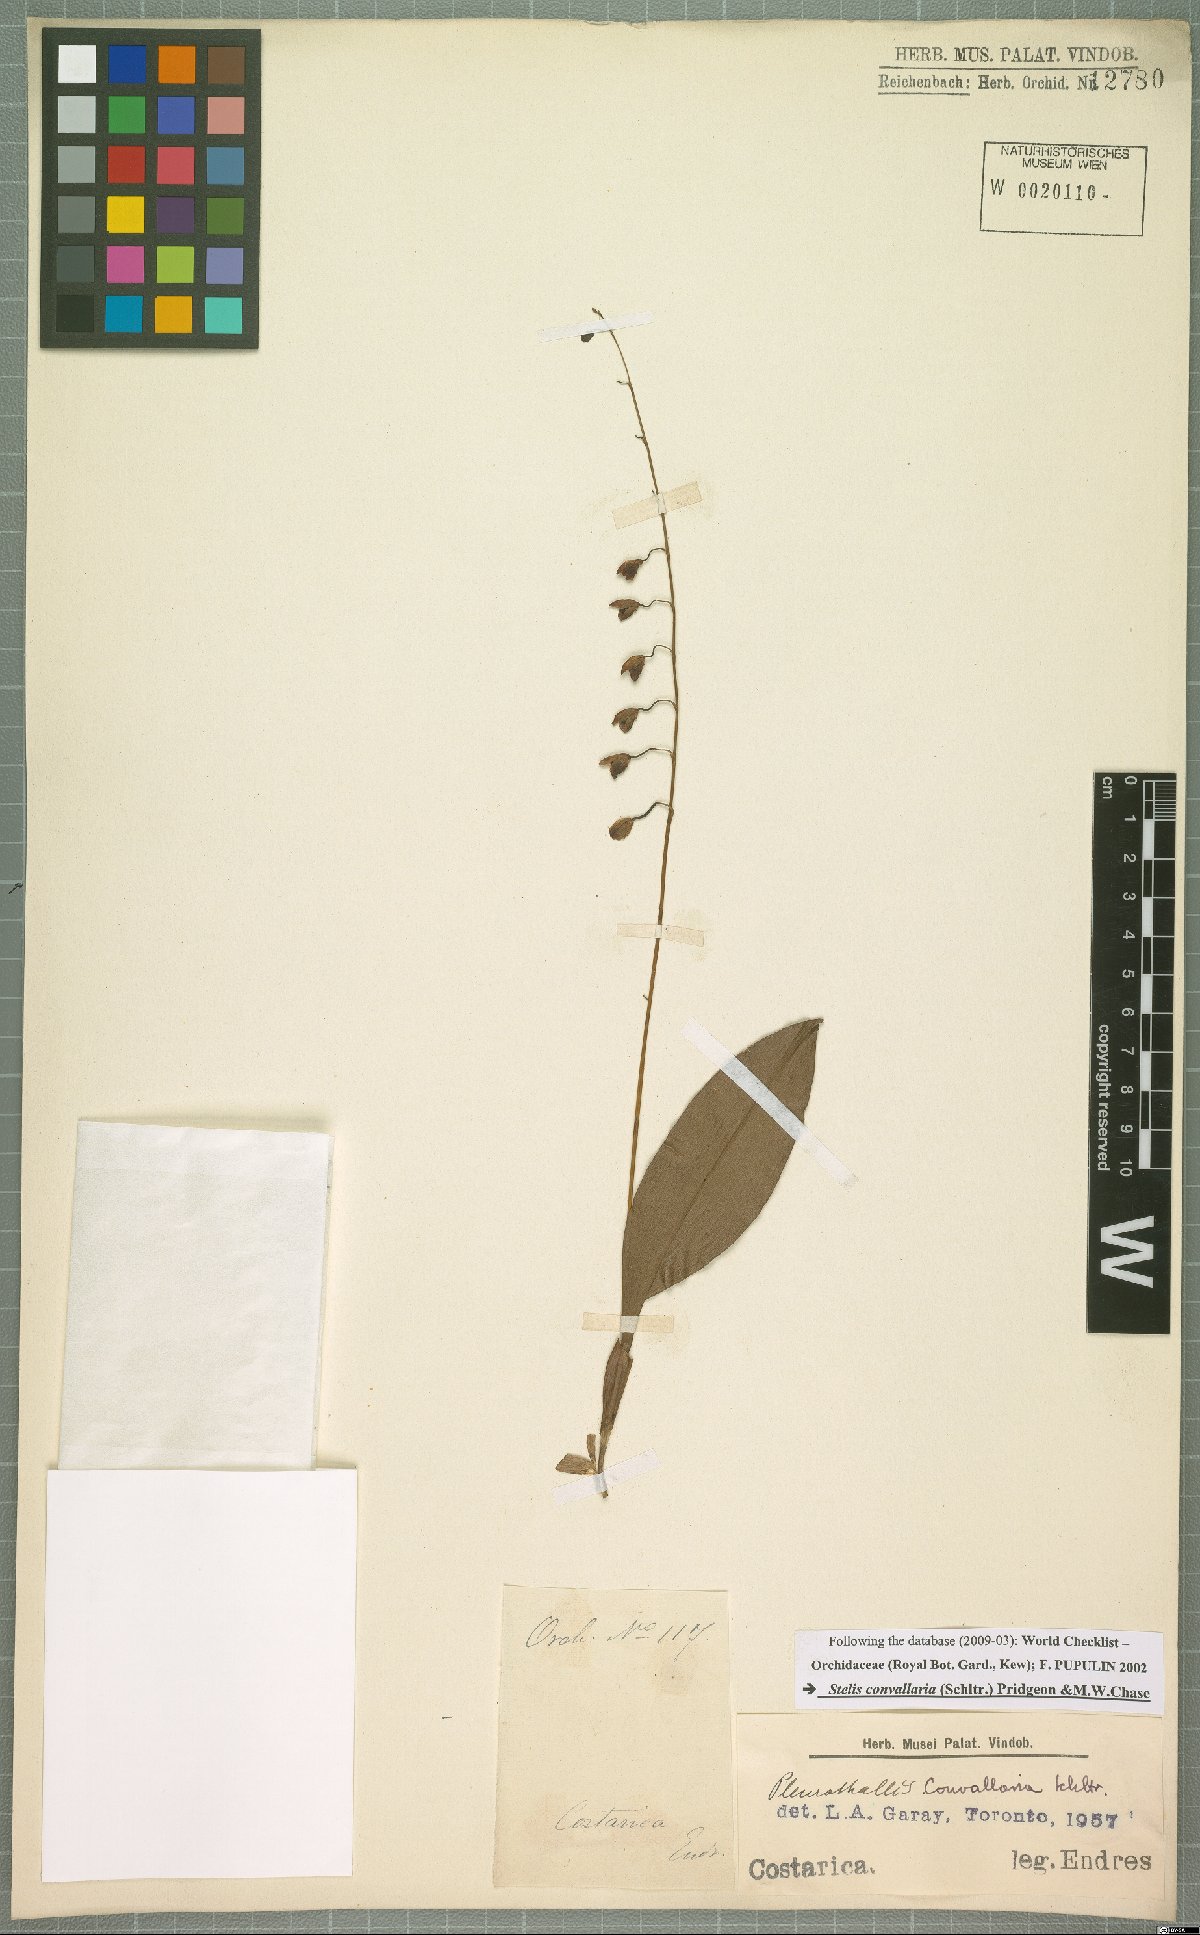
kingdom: Plantae
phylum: Tracheophyta
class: Liliopsida
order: Asparagales
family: Orchidaceae
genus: Stelis
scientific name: Stelis convallaria
